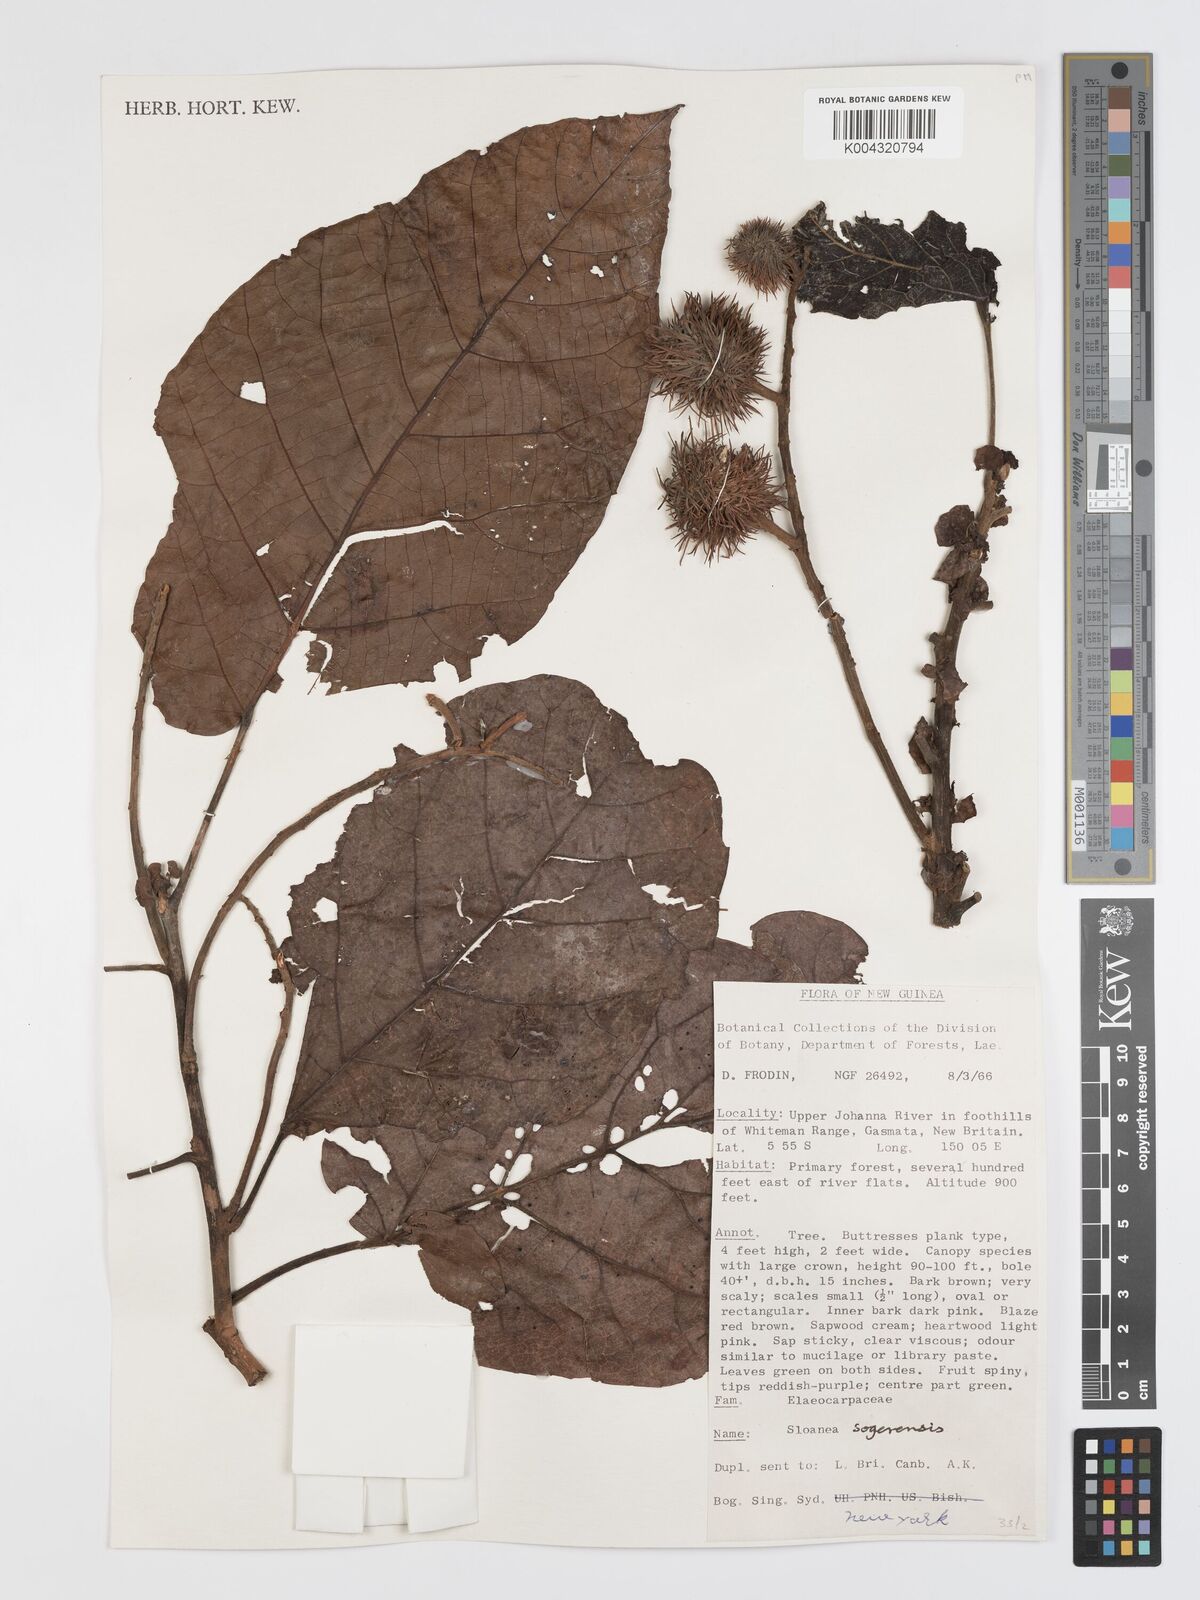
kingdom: Plantae
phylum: Tracheophyta
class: Magnoliopsida
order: Oxalidales
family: Elaeocarpaceae
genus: Sloanea
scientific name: Sloanea sogerensis
